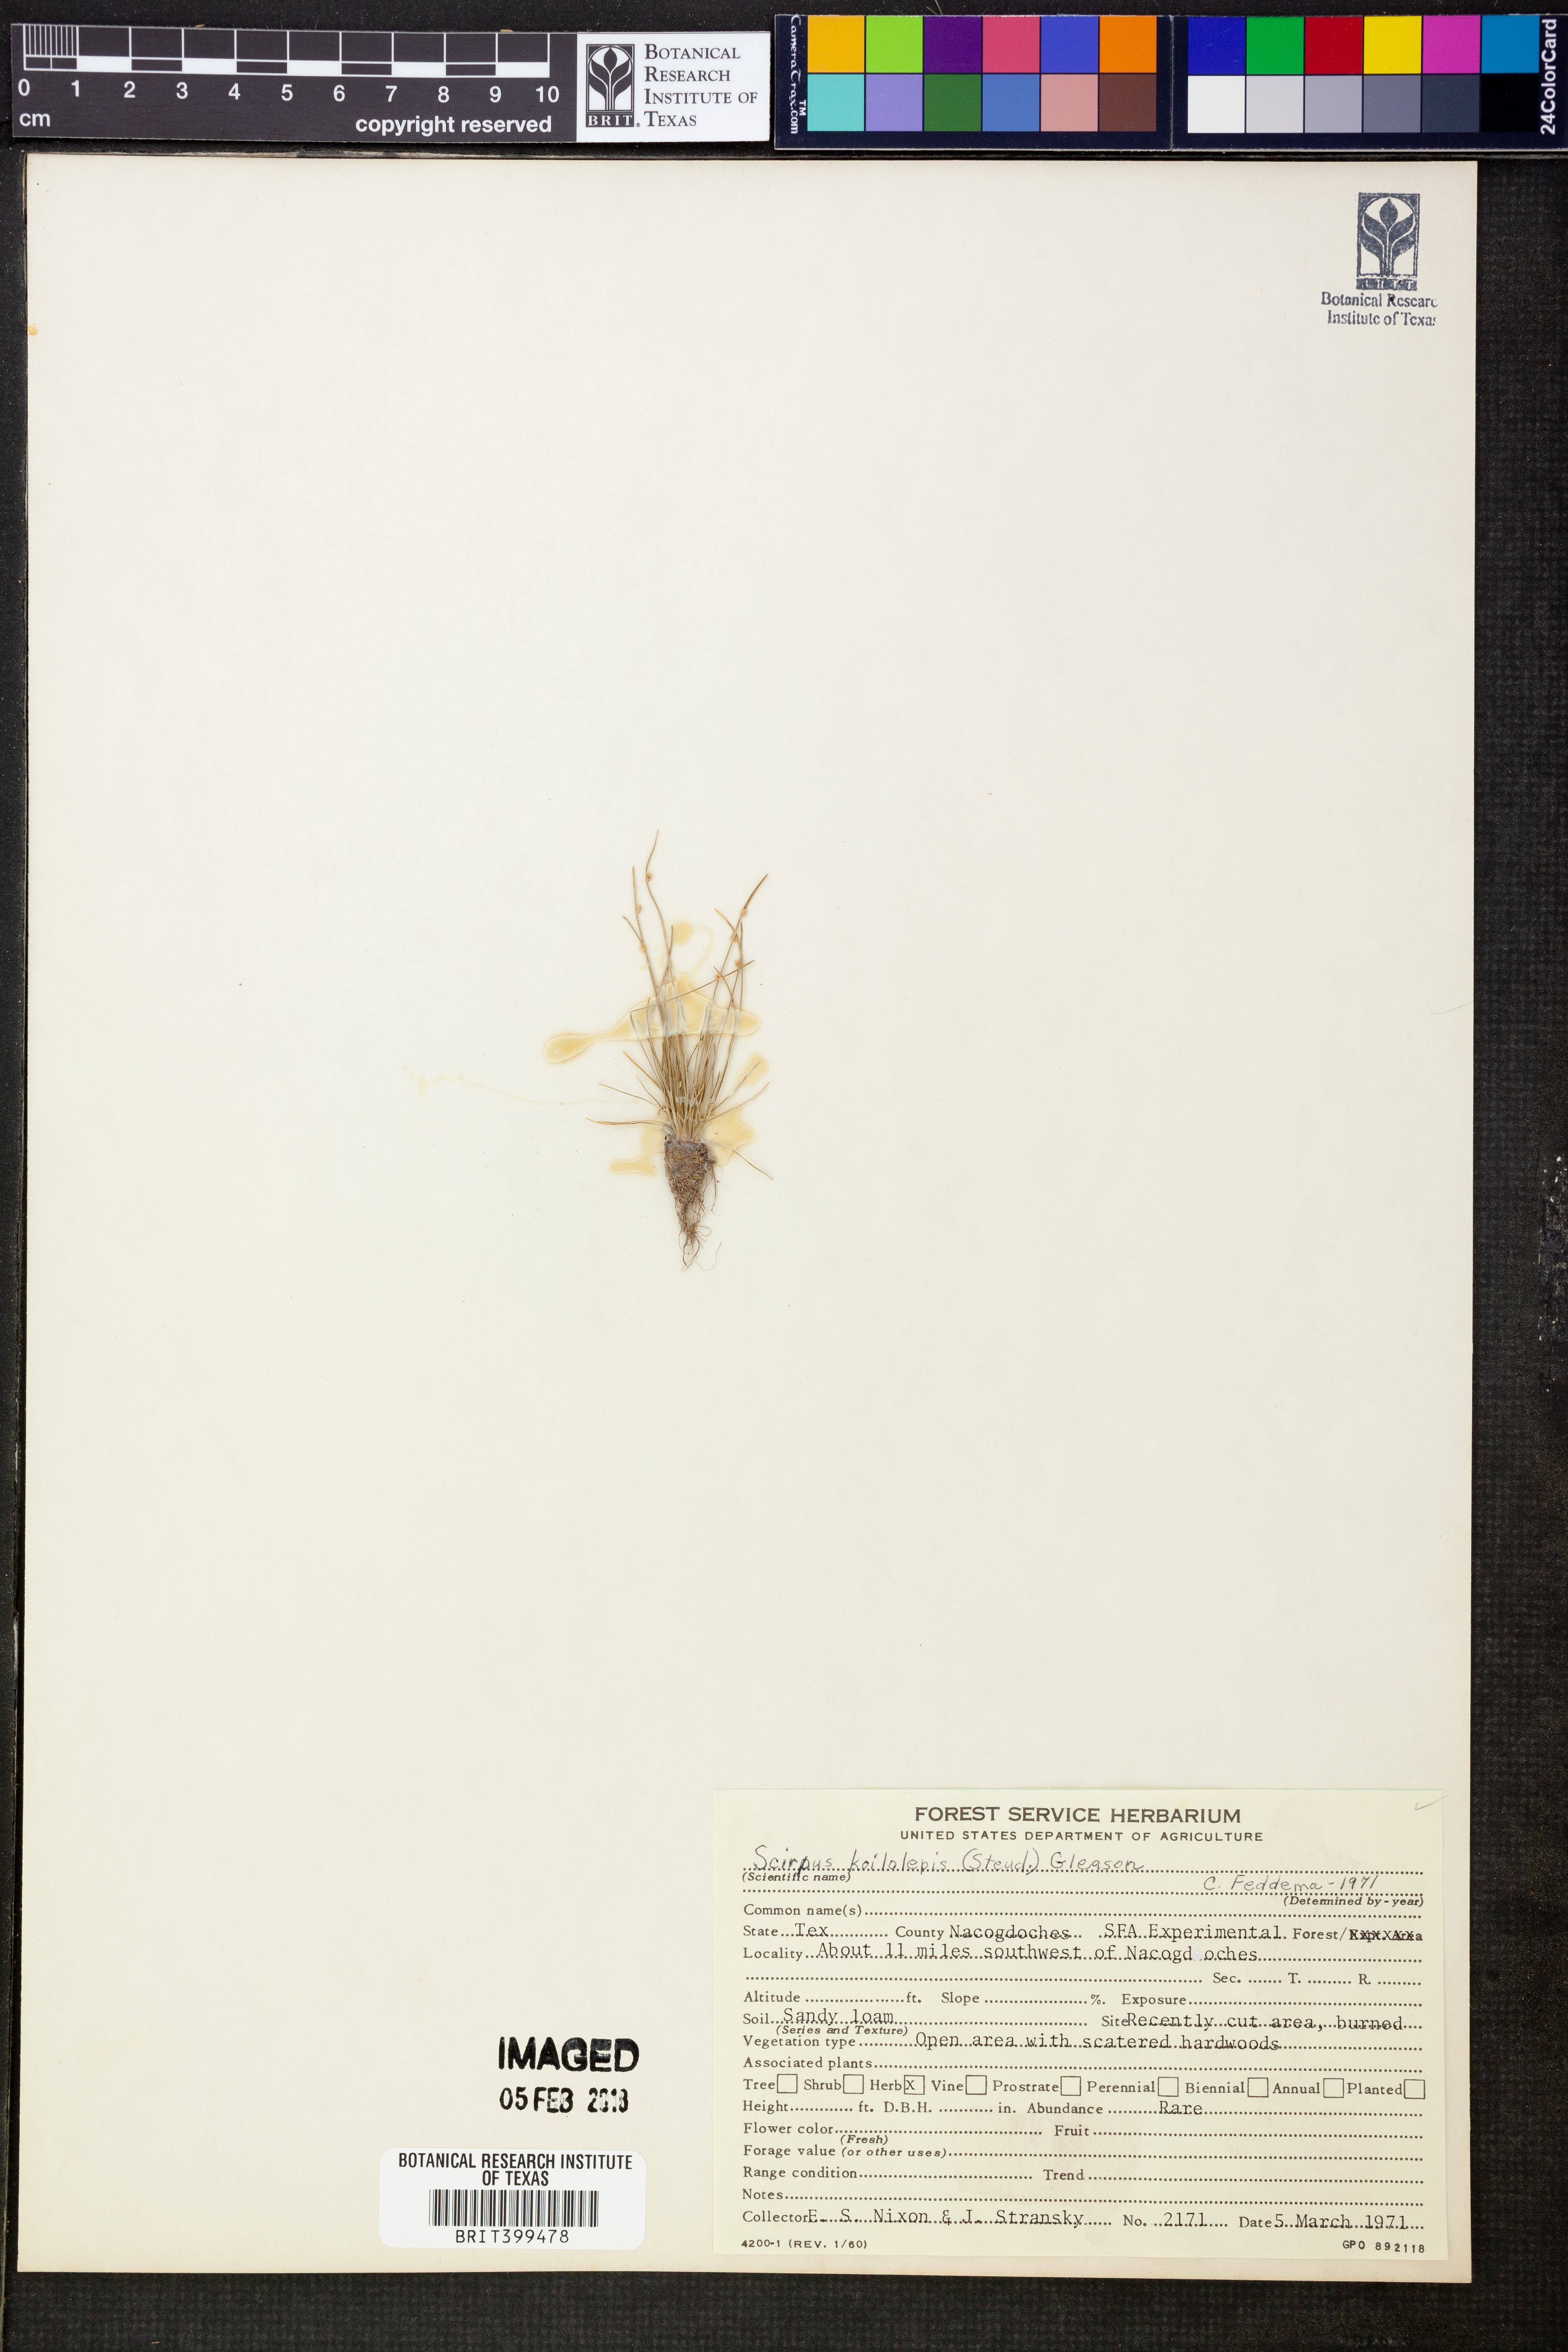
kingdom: Plantae
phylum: Tracheophyta
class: Liliopsida
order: Poales
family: Cyperaceae
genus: Isolepis
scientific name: Isolepis carinata
